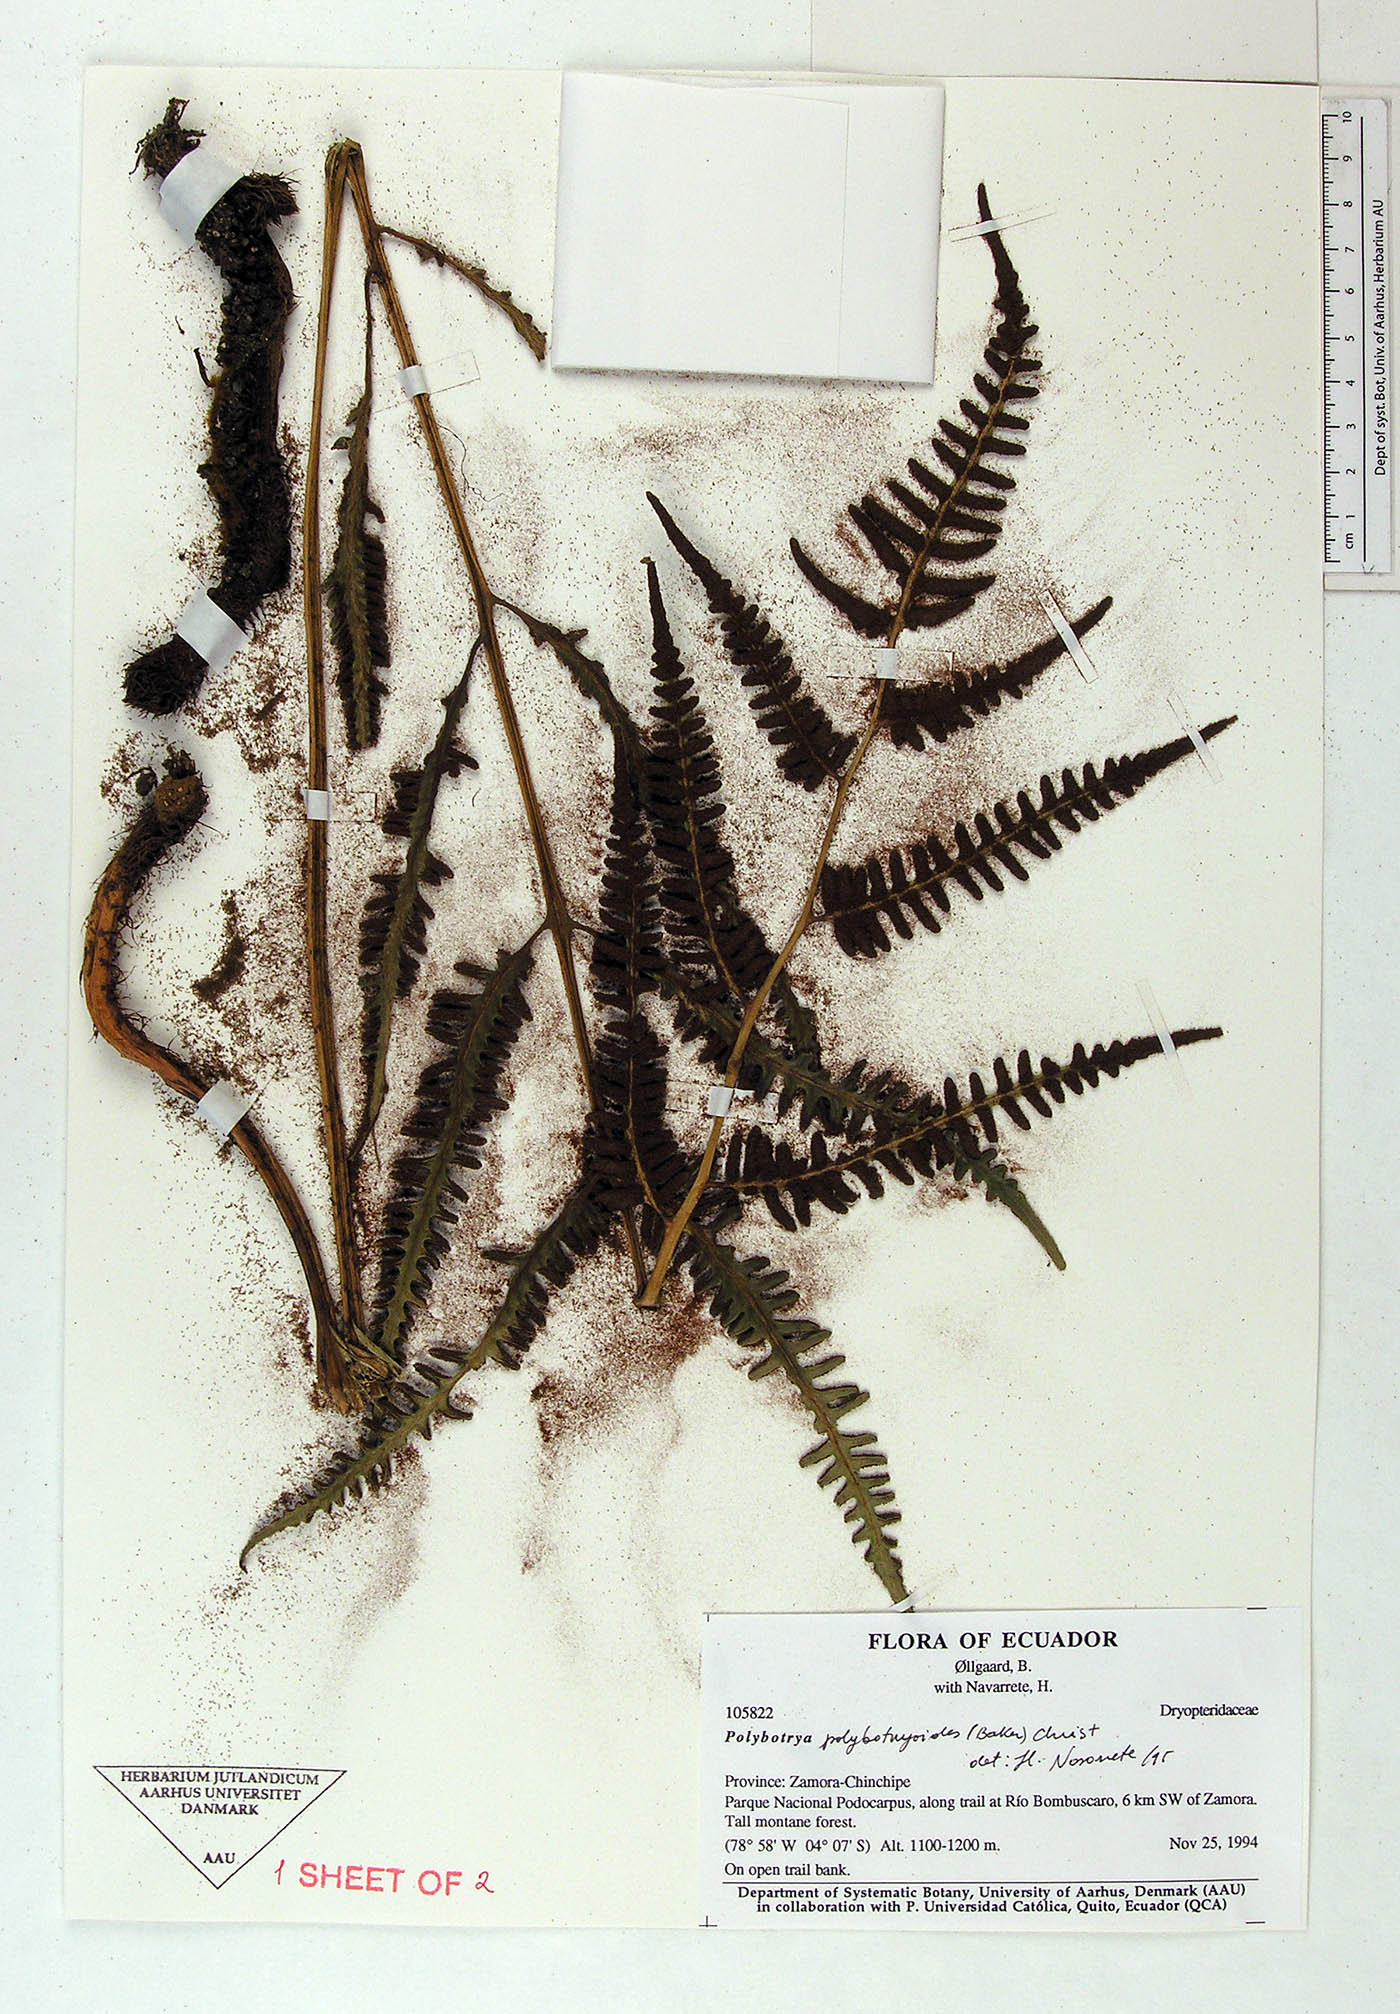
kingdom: Plantae
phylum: Tracheophyta
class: Polypodiopsida
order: Polypodiales
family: Dryopteridaceae
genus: Polybotrya
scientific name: Polybotrya polybotryoides
